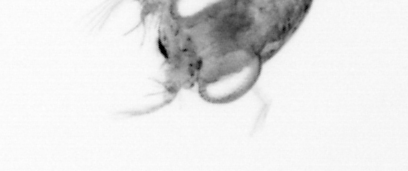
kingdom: Animalia
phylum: Arthropoda
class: Copepoda
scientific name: Copepoda
